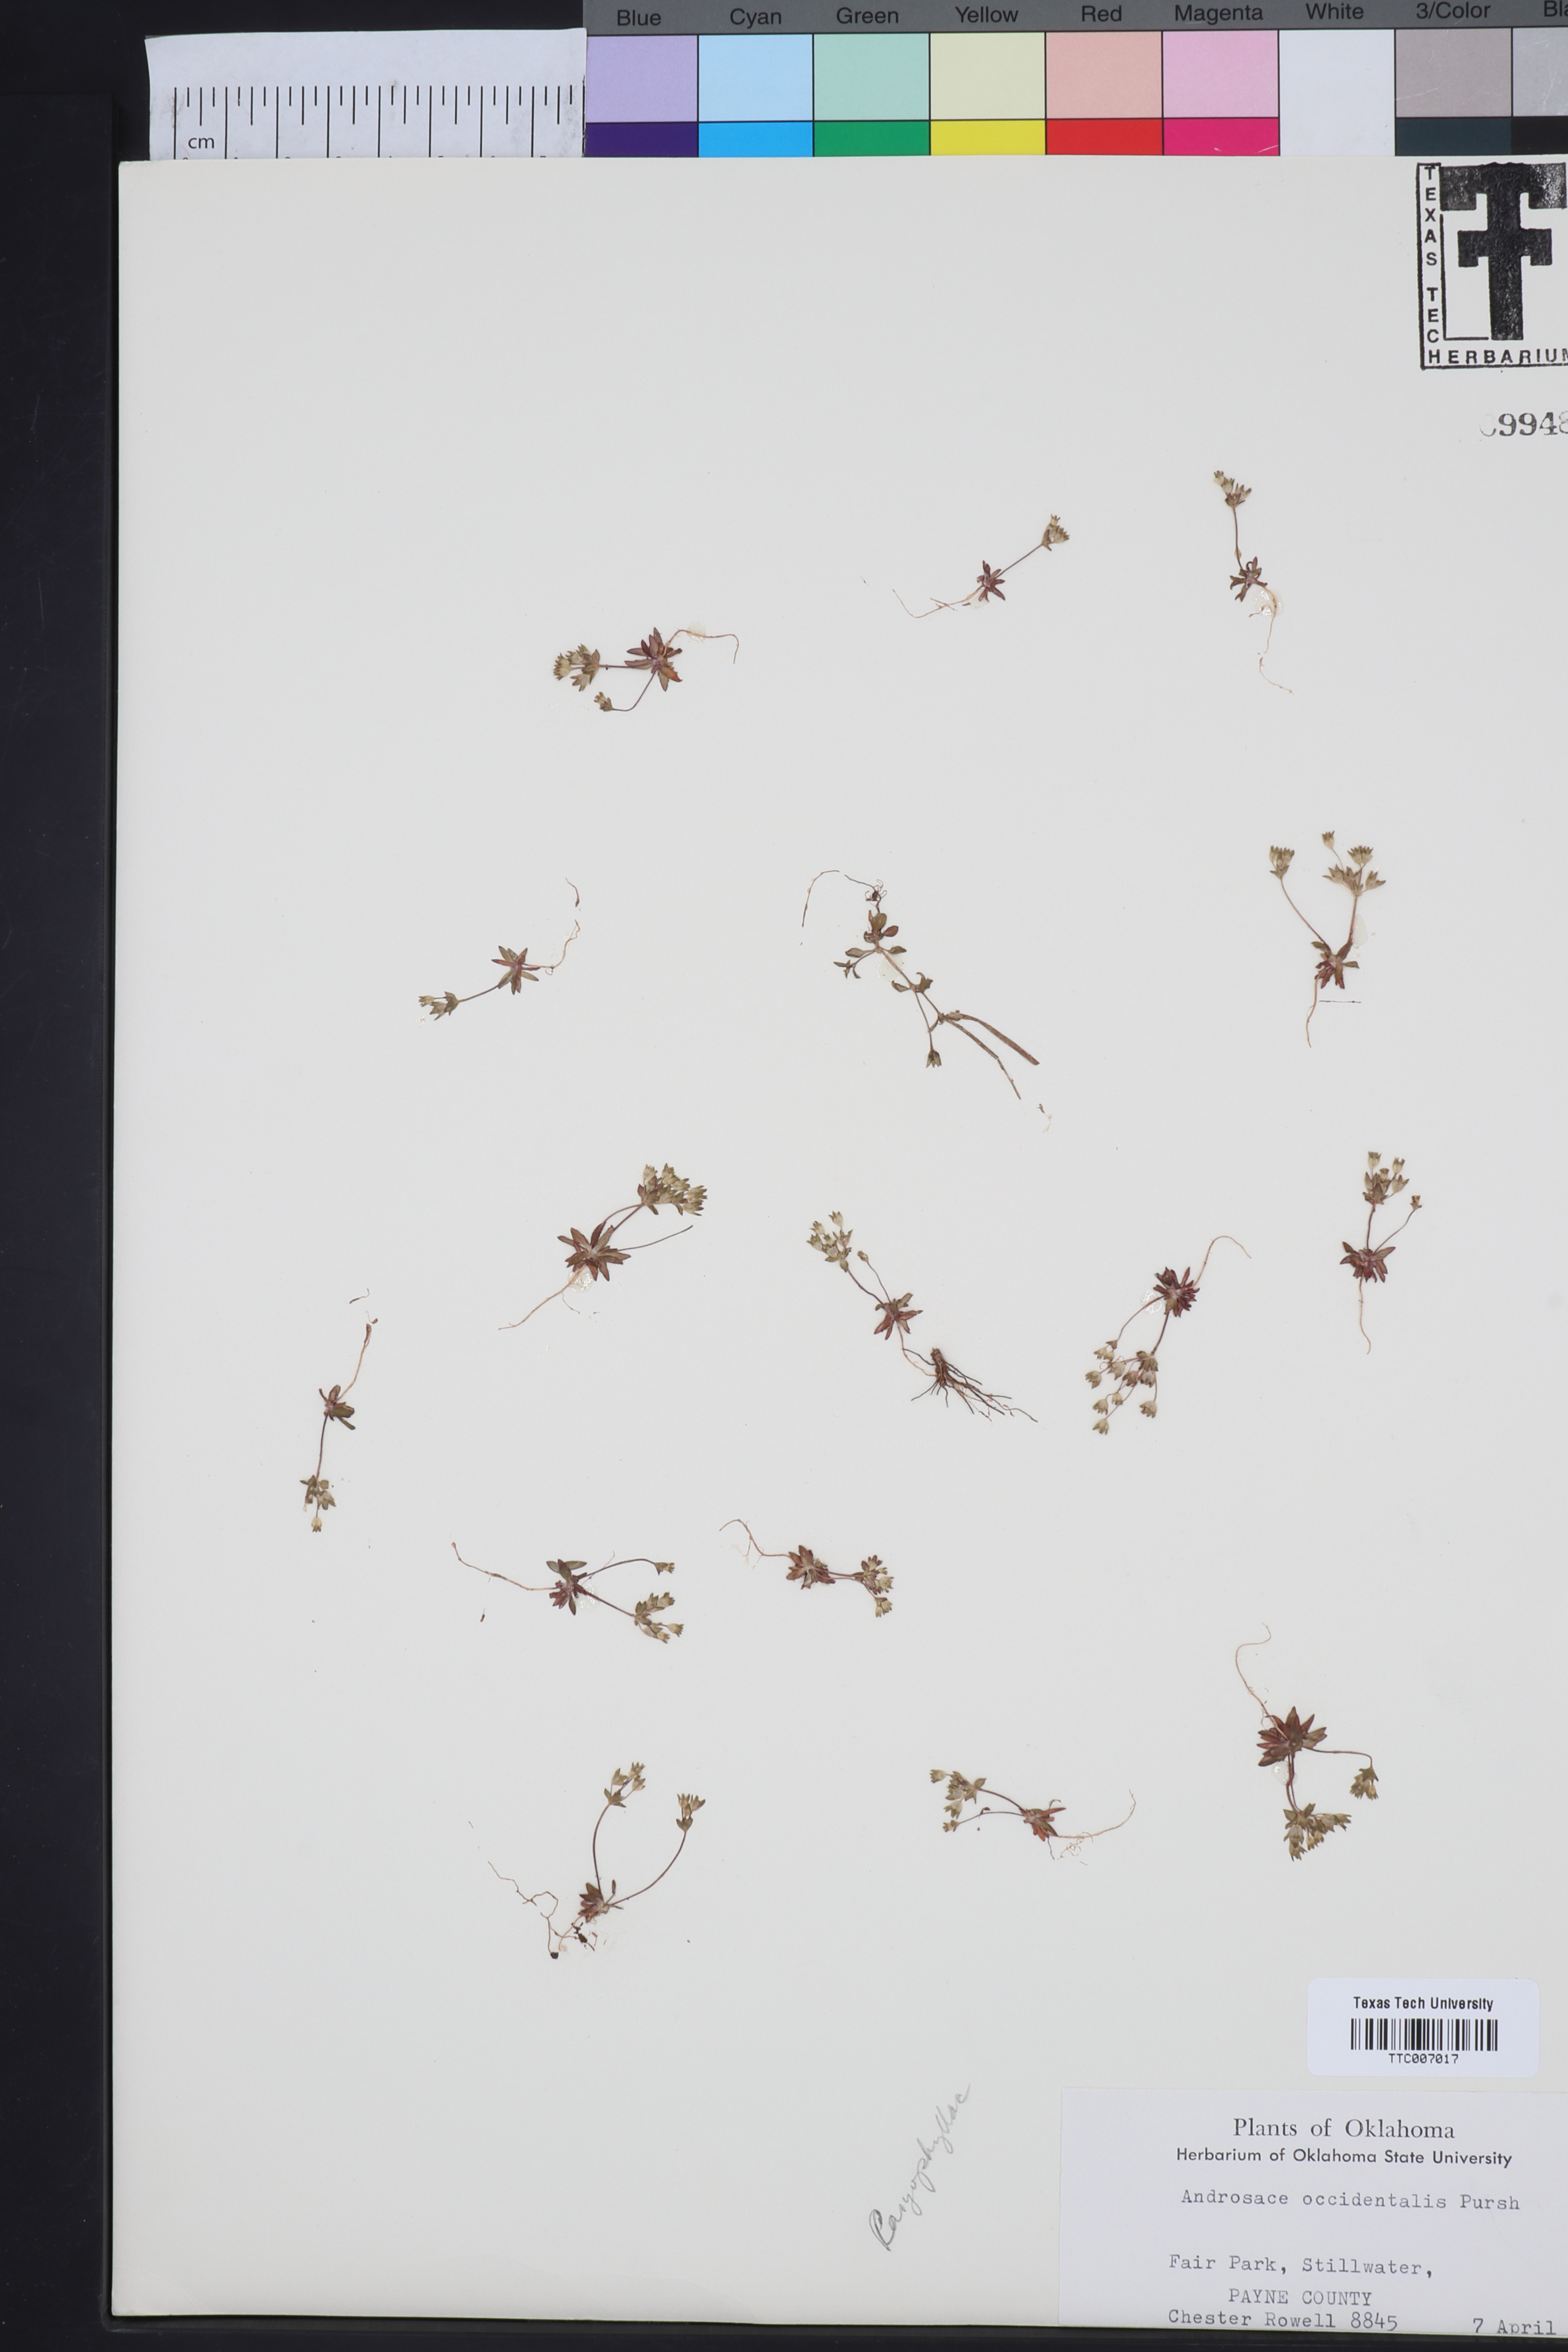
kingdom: Plantae
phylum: Tracheophyta
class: Magnoliopsida
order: Ericales
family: Primulaceae
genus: Androsace
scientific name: Androsace occidentalis
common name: West rock-jasmine
